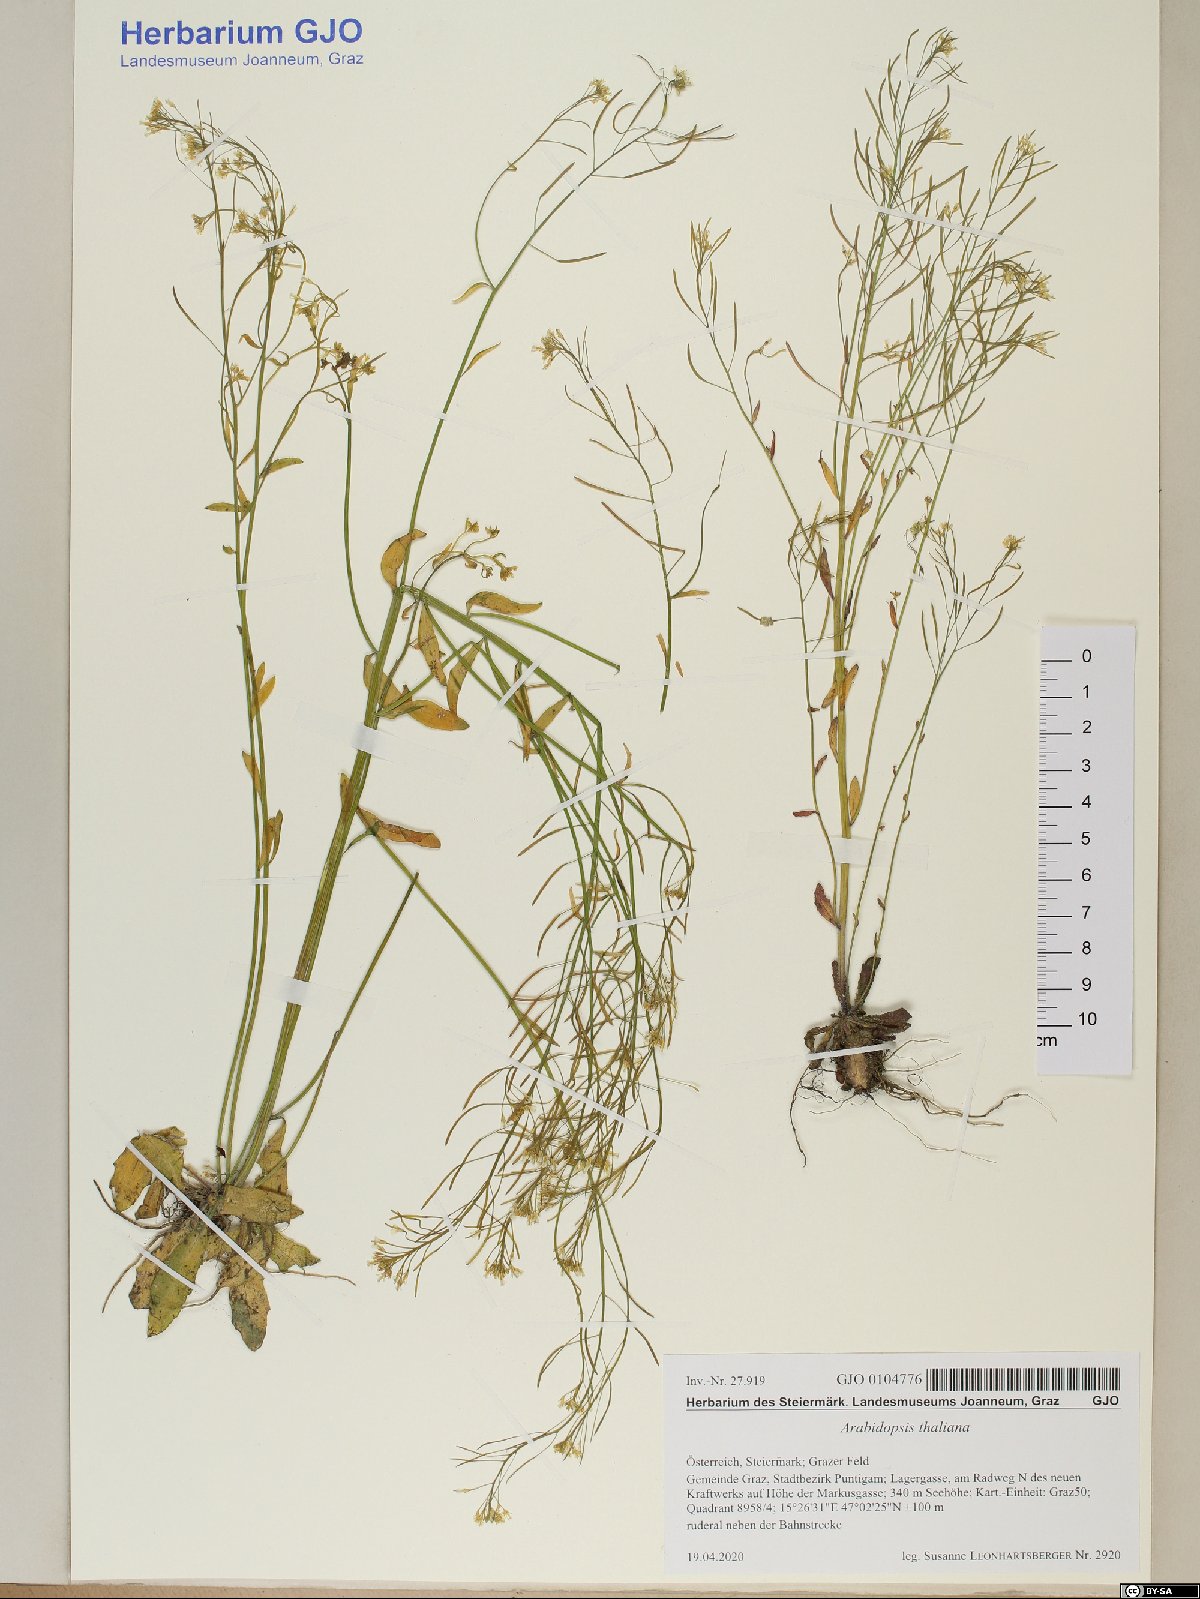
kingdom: Plantae
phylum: Tracheophyta
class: Magnoliopsida
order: Brassicales
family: Brassicaceae
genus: Arabidopsis
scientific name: Arabidopsis thaliana
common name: Thale cress
